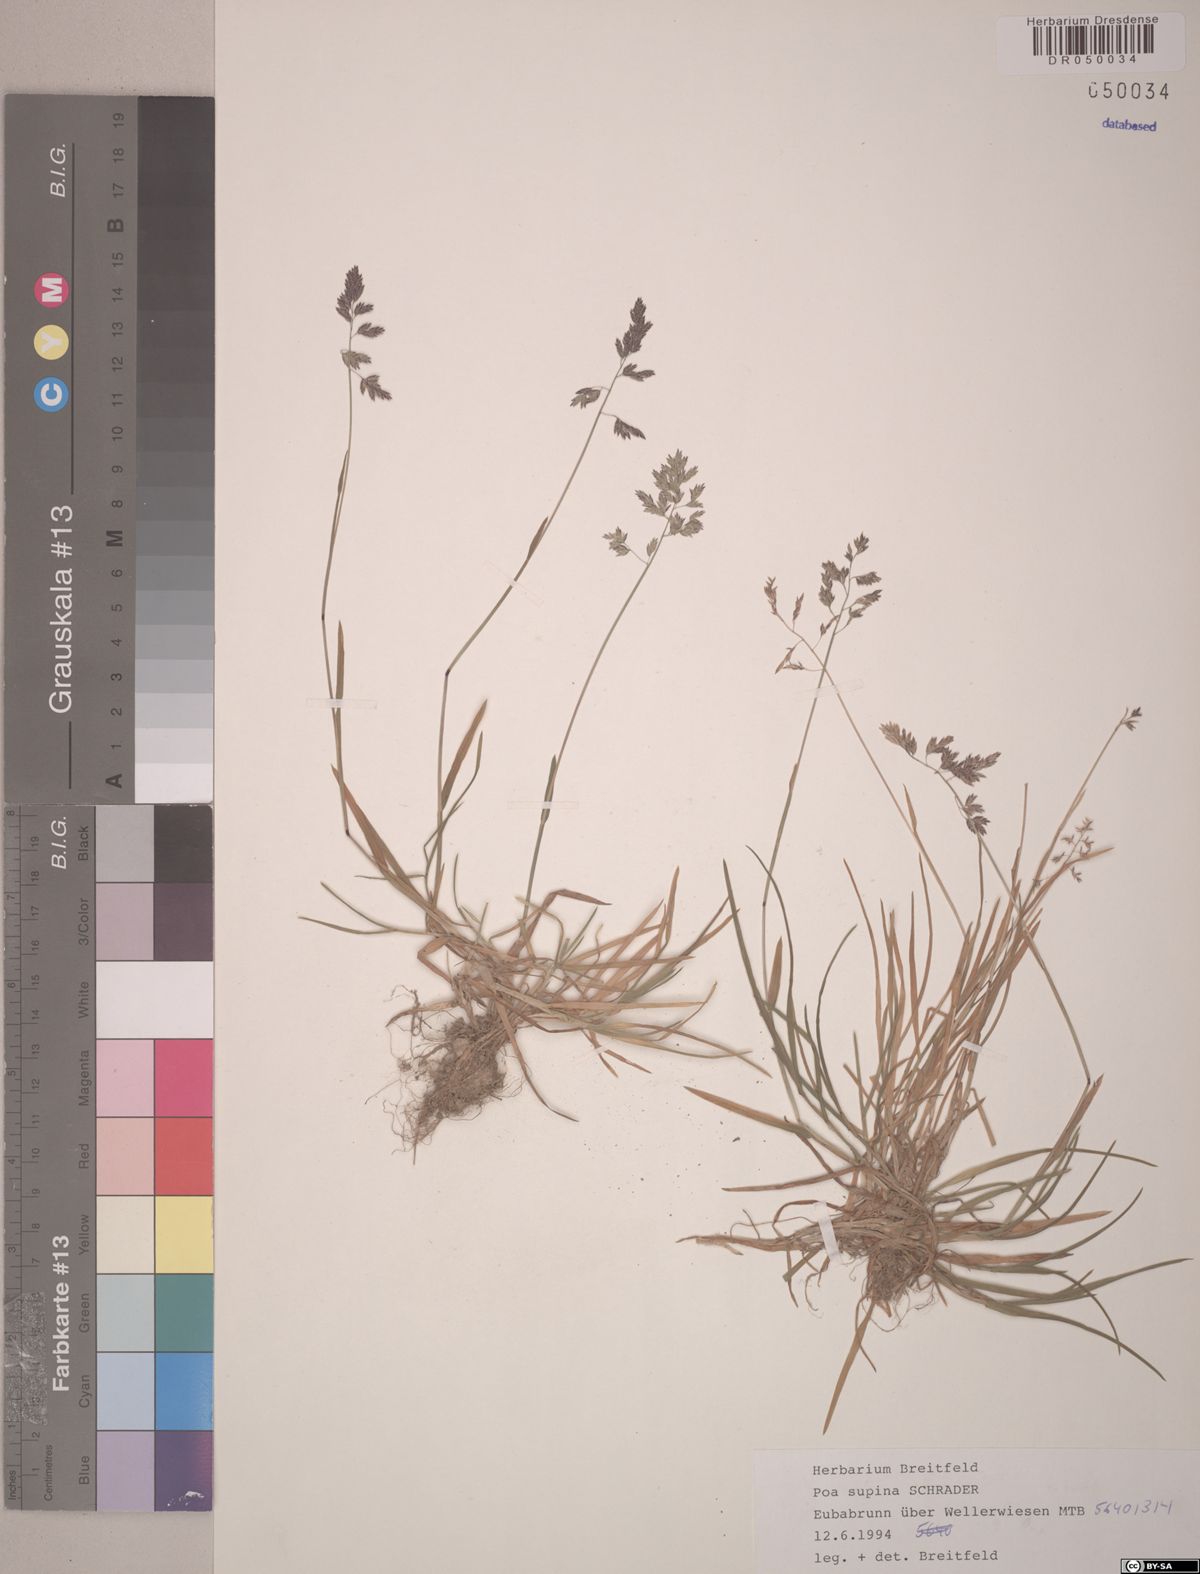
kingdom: Plantae
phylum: Tracheophyta
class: Liliopsida
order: Poales
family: Poaceae
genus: Poa
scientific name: Poa supina
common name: Supina bluegrass
